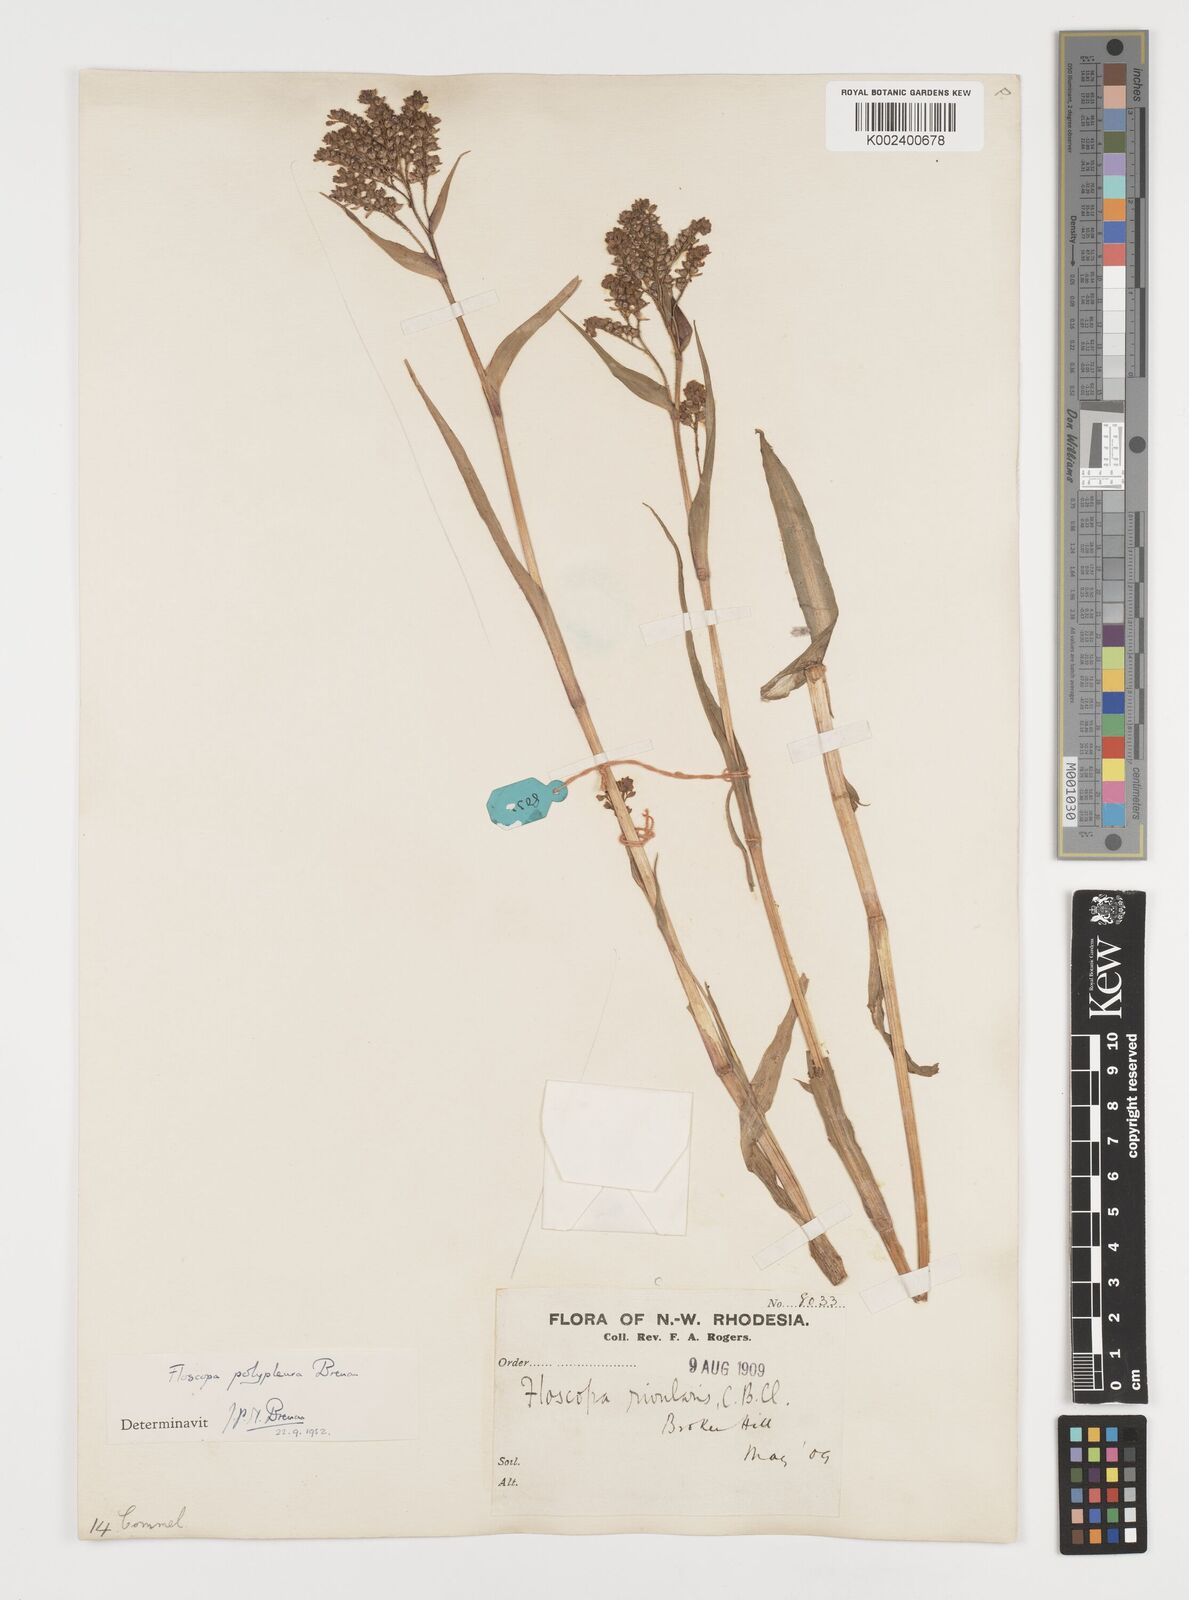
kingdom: Plantae
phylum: Tracheophyta
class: Liliopsida
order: Commelinales
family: Commelinaceae
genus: Floscopa
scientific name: Floscopa polypleura
